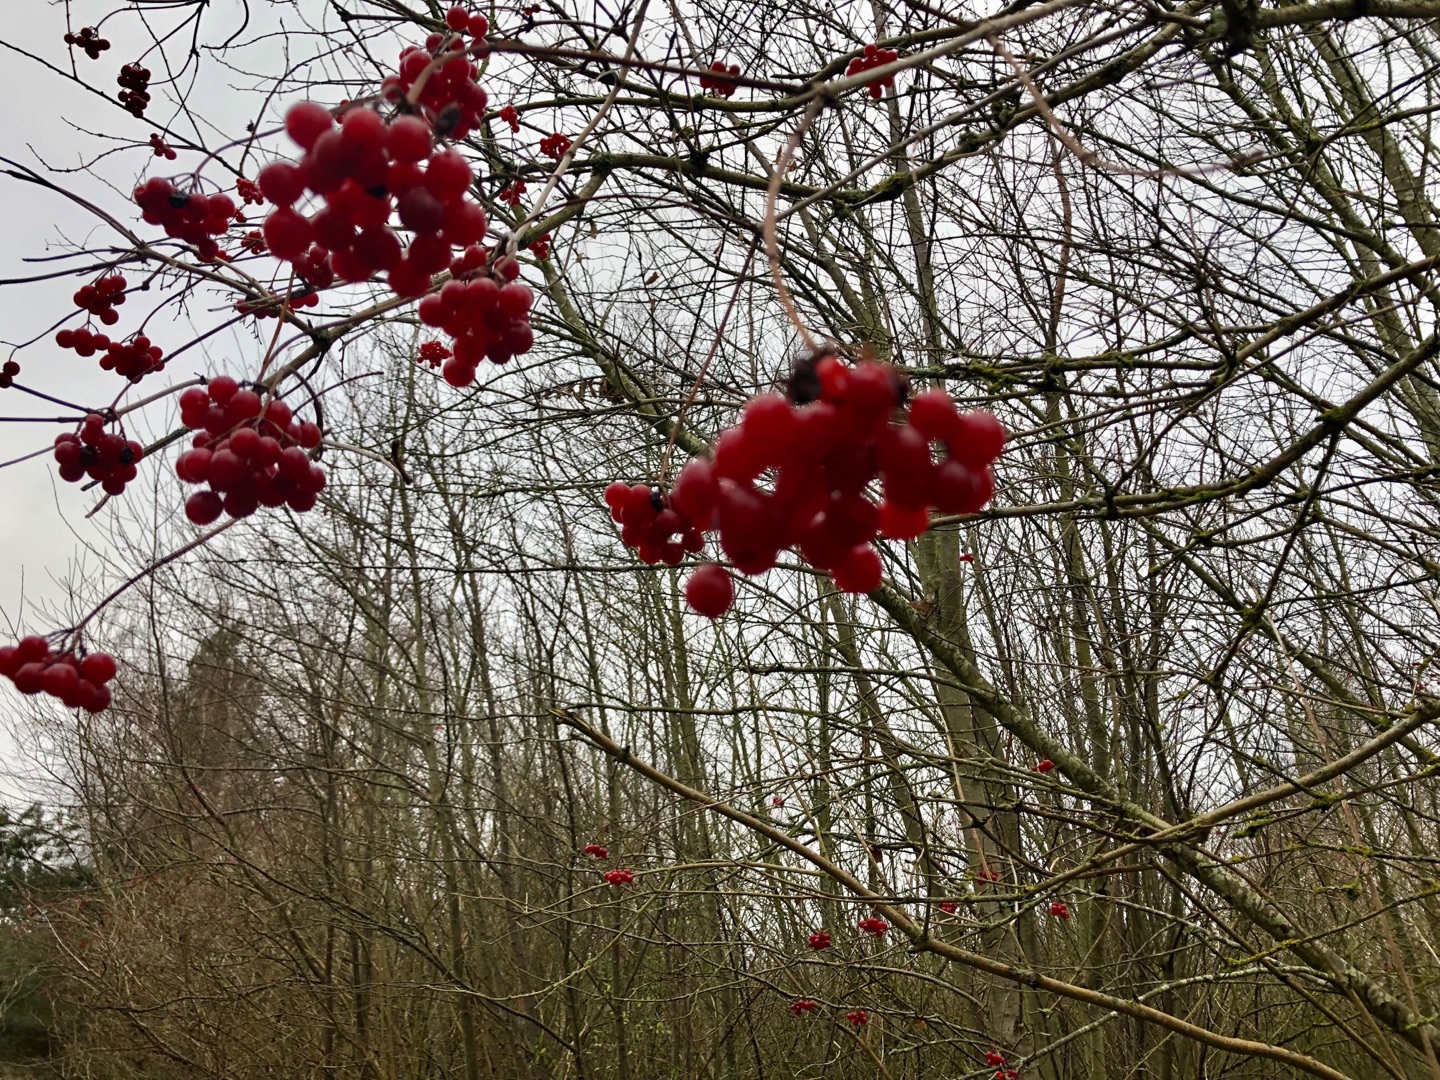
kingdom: Plantae
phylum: Tracheophyta
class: Magnoliopsida
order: Dipsacales
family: Viburnaceae
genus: Viburnum
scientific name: Viburnum opulus
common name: Kvalkved
